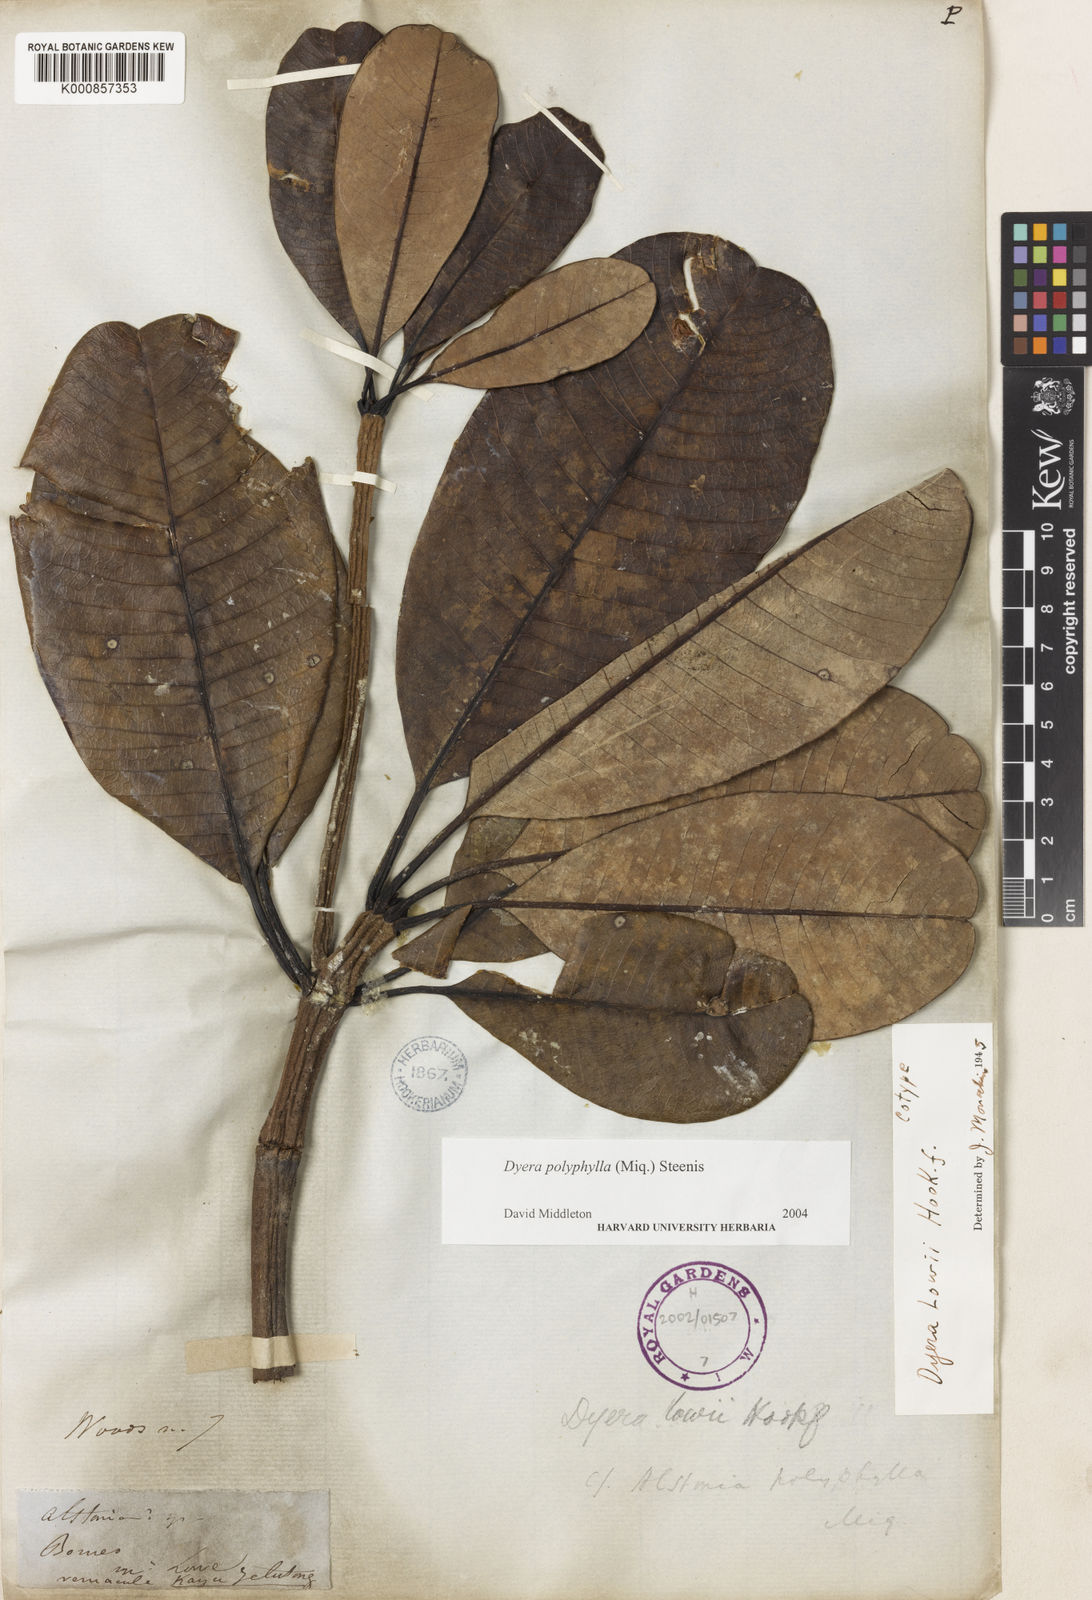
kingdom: Plantae
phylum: Tracheophyta
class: Magnoliopsida
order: Gentianales
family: Apocynaceae
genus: Dyera
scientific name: Dyera polyphylla
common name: Swamp jelutong
